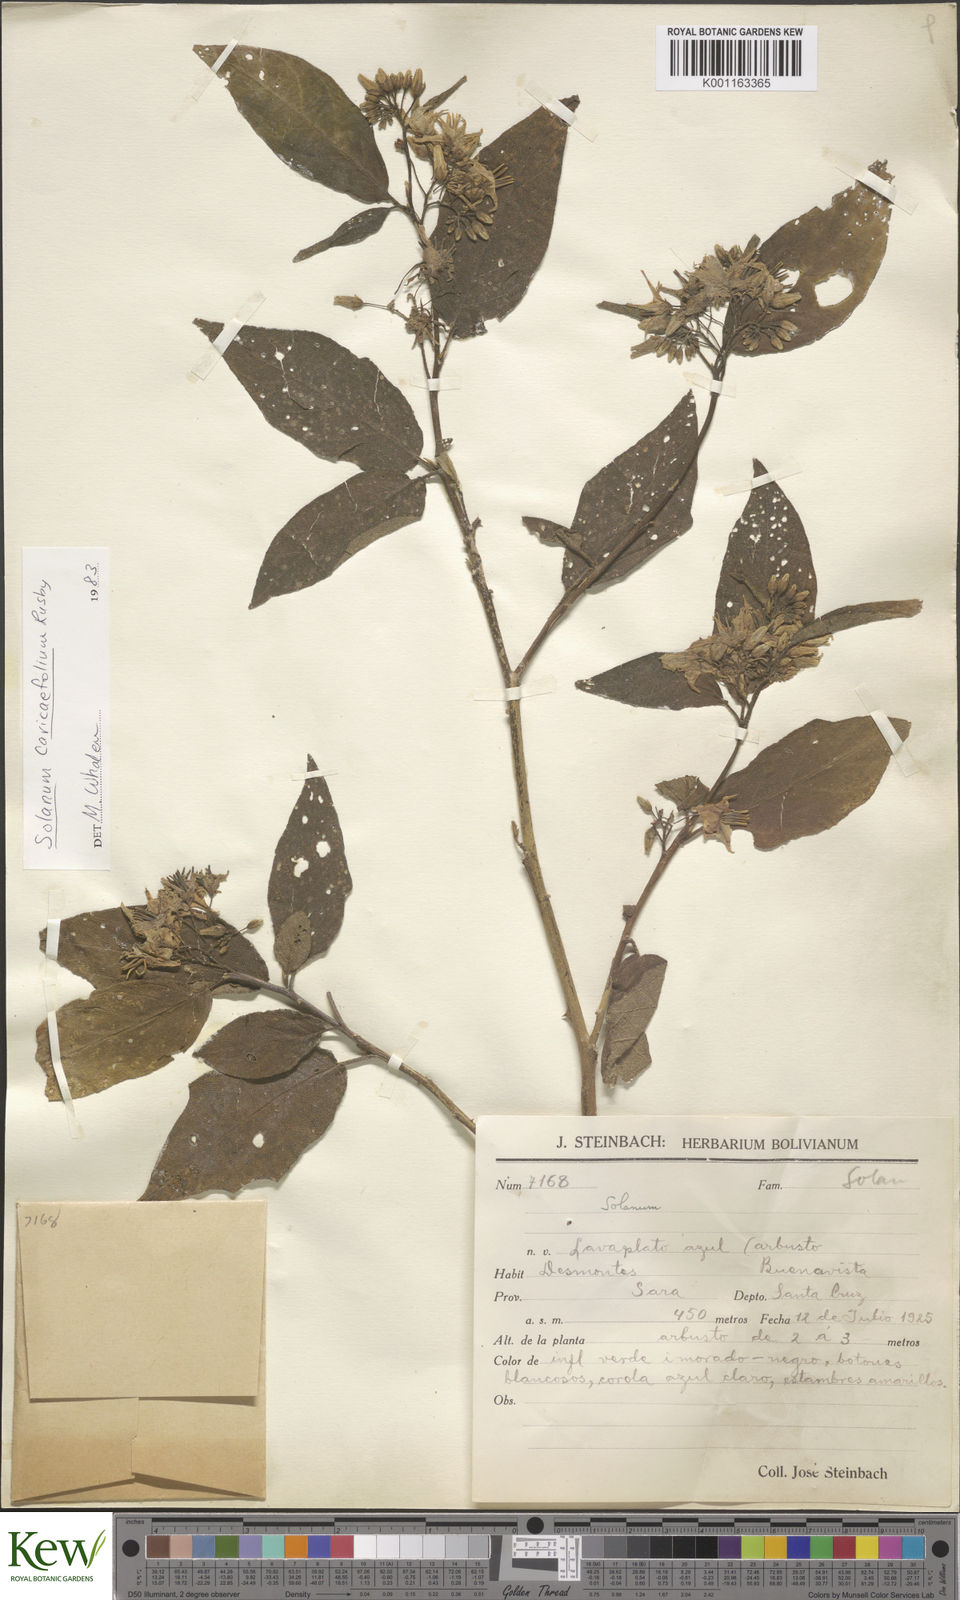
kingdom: Plantae
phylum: Tracheophyta
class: Magnoliopsida
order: Solanales
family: Solanaceae
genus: Solanum
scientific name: Solanum caricaefolium
